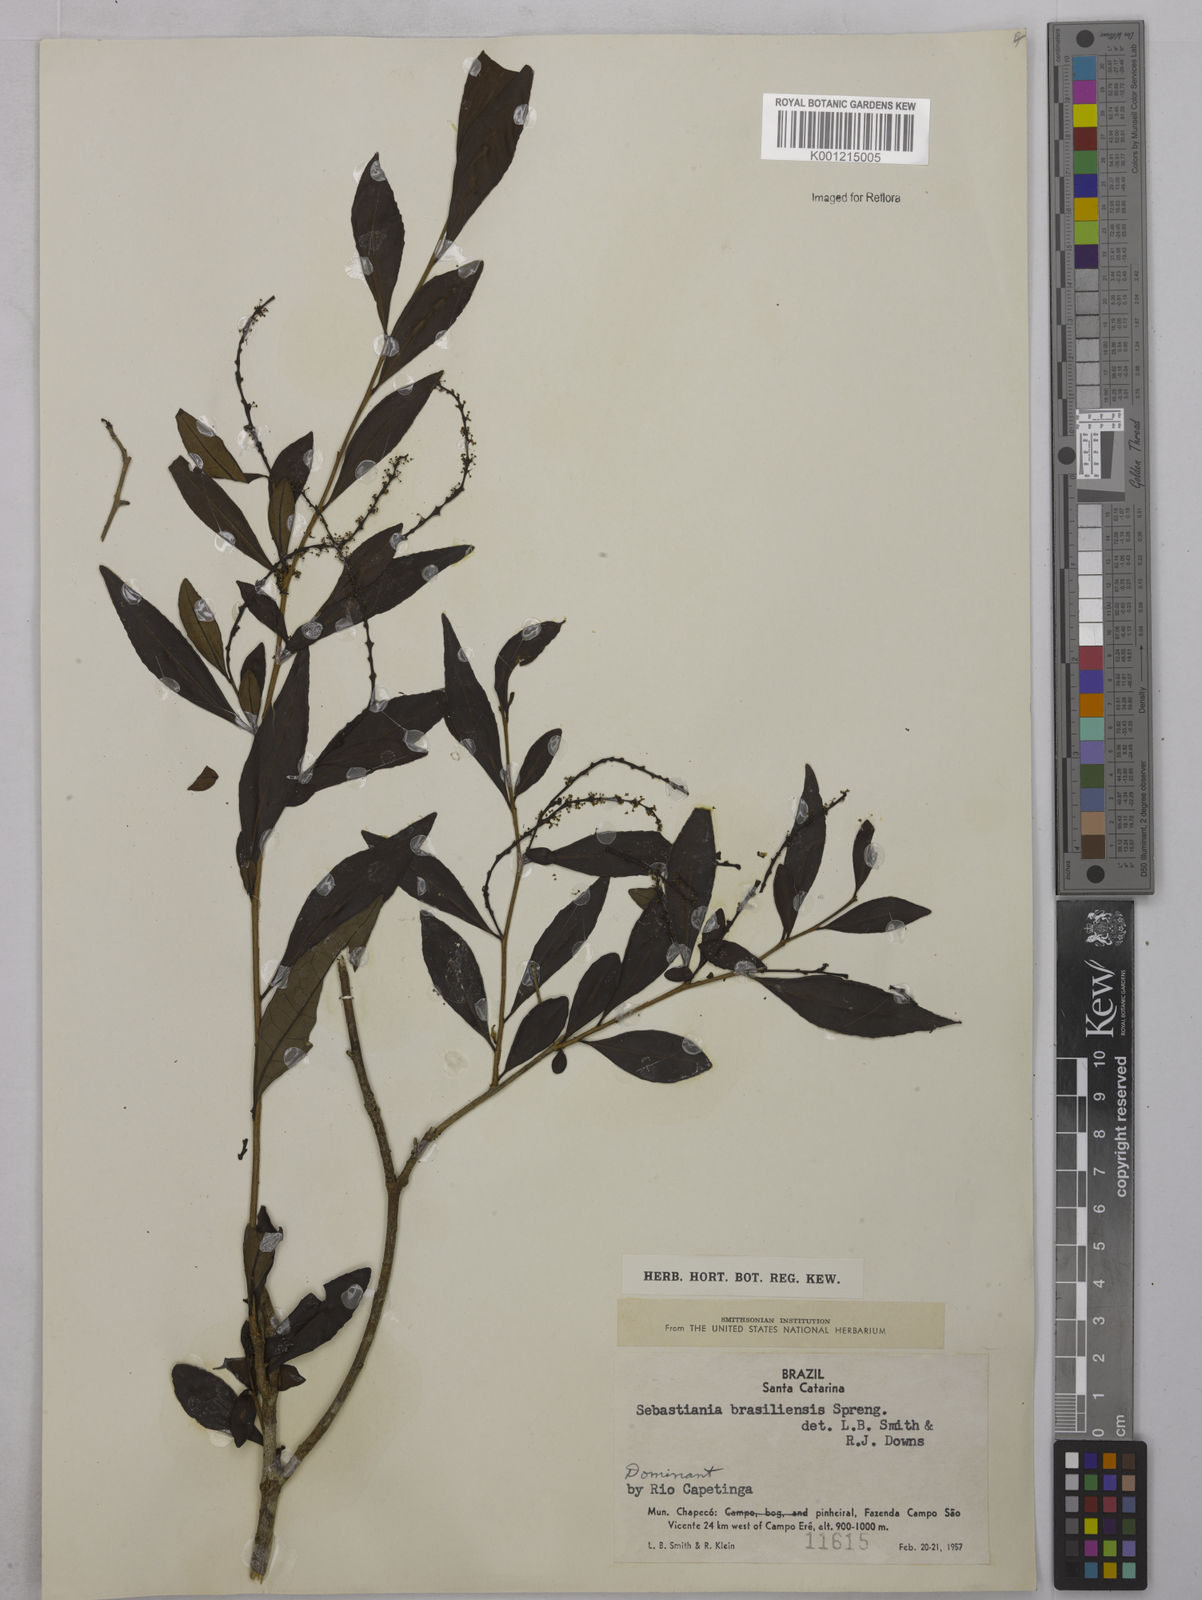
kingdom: Plantae
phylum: Tracheophyta
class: Magnoliopsida
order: Malpighiales
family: Euphorbiaceae
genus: Sebastiania
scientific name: Sebastiania brasiliensis
